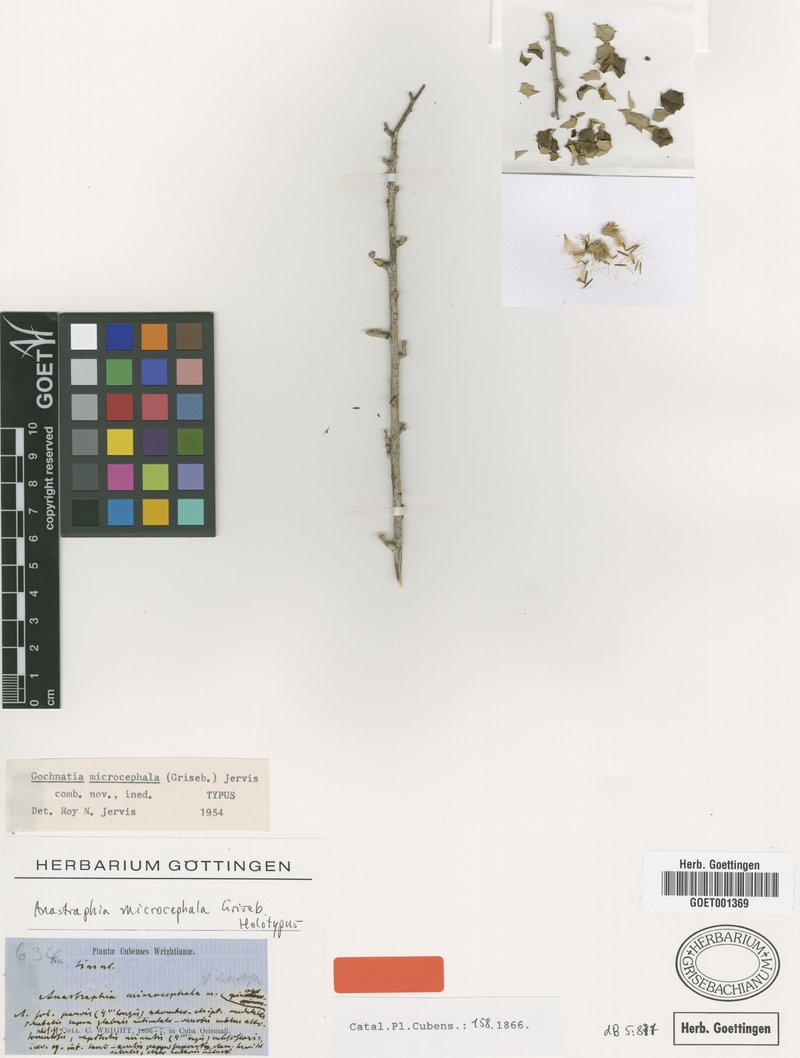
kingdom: Plantae
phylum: Tracheophyta
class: Magnoliopsida
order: Asterales
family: Asteraceae
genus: Anastraphia
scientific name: Anastraphia microcephala
